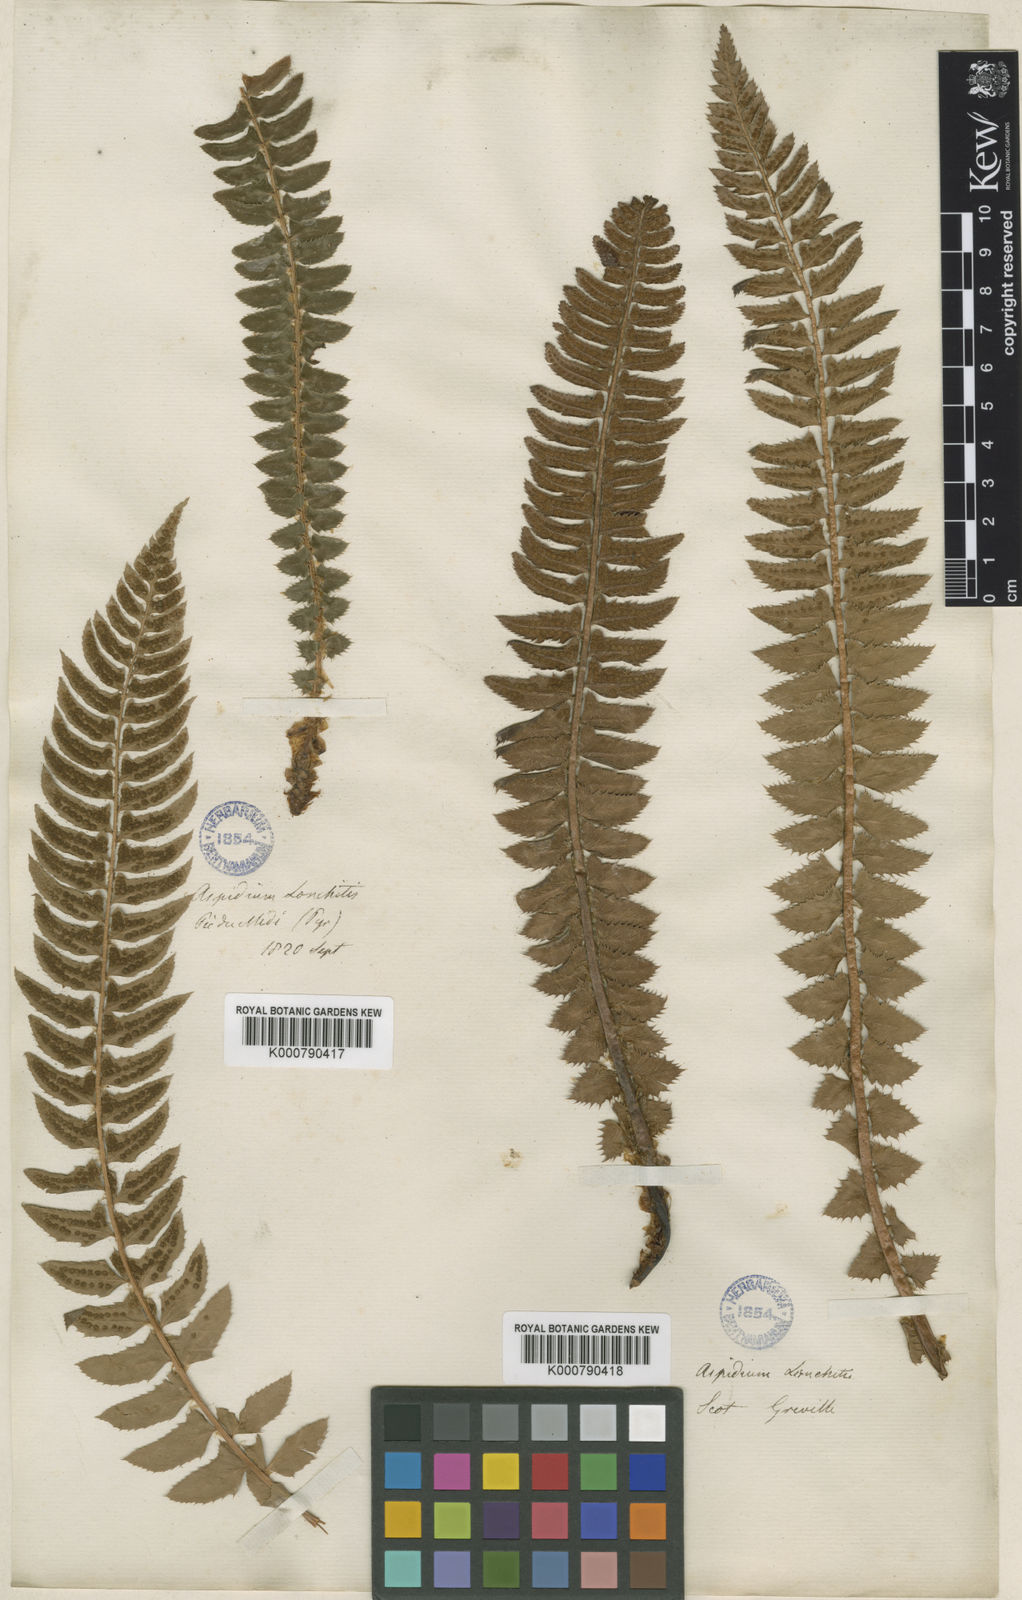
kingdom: Plantae
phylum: Tracheophyta
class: Polypodiopsida
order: Polypodiales
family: Dryopteridaceae
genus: Polystichum
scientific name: Polystichum
